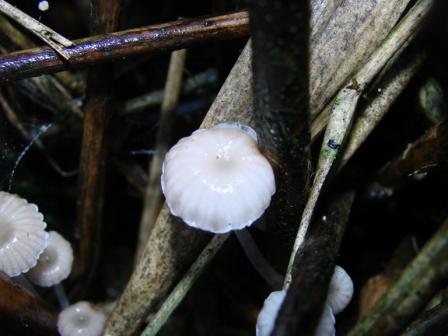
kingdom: Fungi
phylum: Basidiomycota
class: Agaricomycetes
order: Agaricales
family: Mycenaceae
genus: Mycena
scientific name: Mycena belliae
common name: tagrørs-huesvamp
